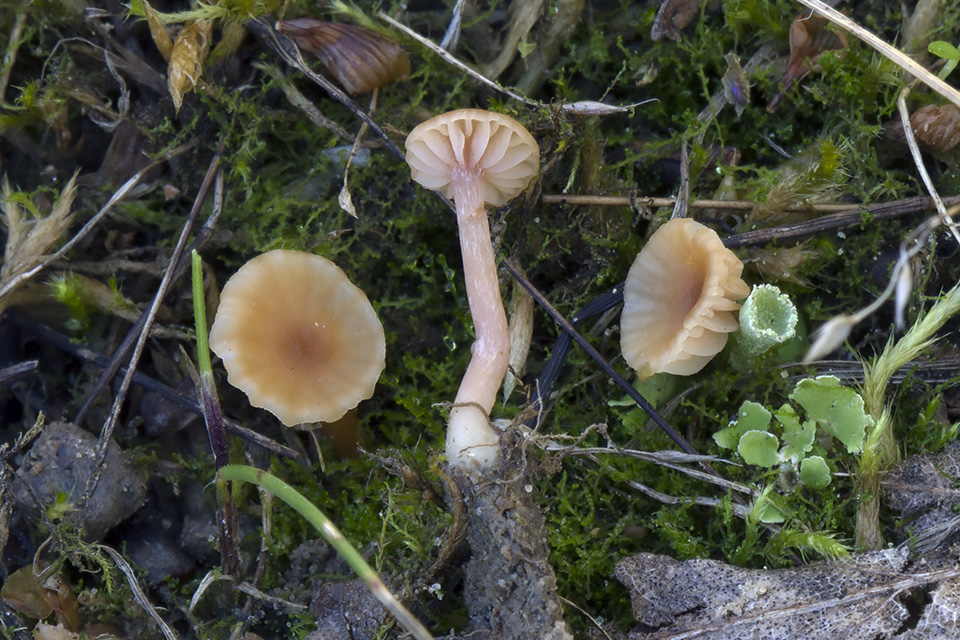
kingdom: Fungi
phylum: Basidiomycota
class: Agaricomycetes
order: Agaricales
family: Hydnangiaceae
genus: Laccaria
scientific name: Laccaria tortilis
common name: krybende ametysthat
